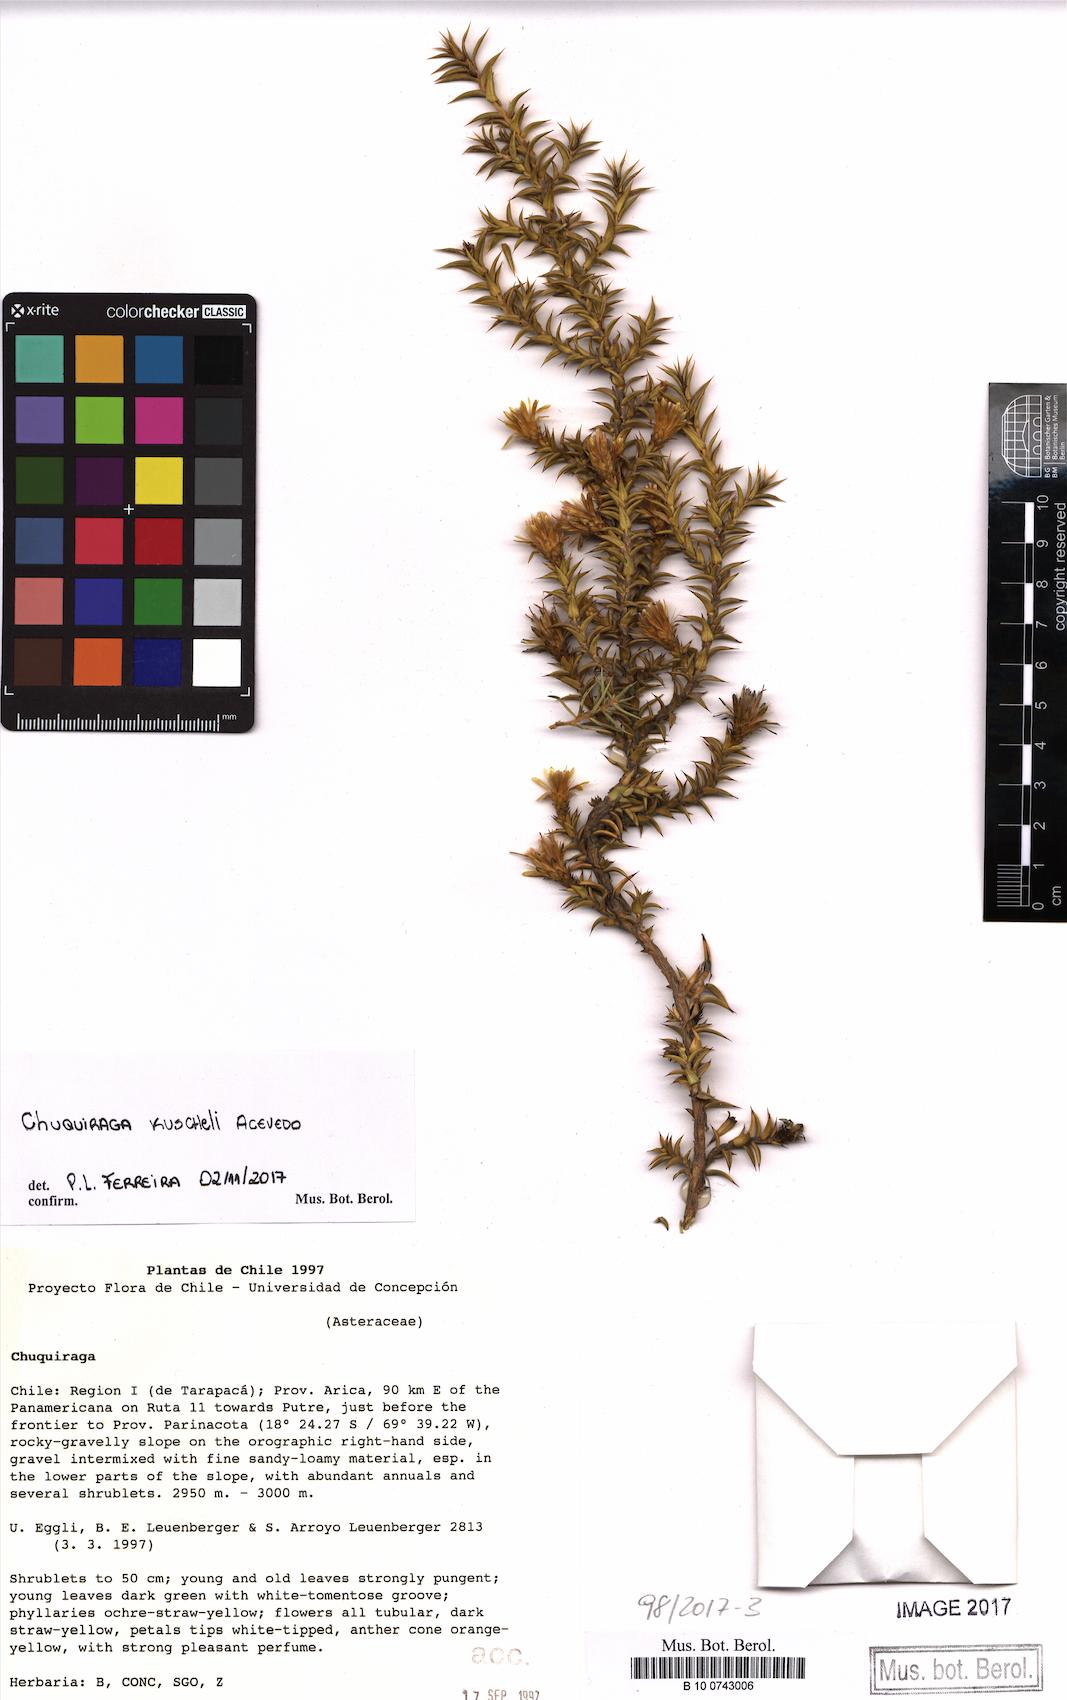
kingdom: Plantae
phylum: Tracheophyta
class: Magnoliopsida
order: Asterales
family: Asteraceae
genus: Chuquiraga
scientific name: Chuquiraga kuschelii
